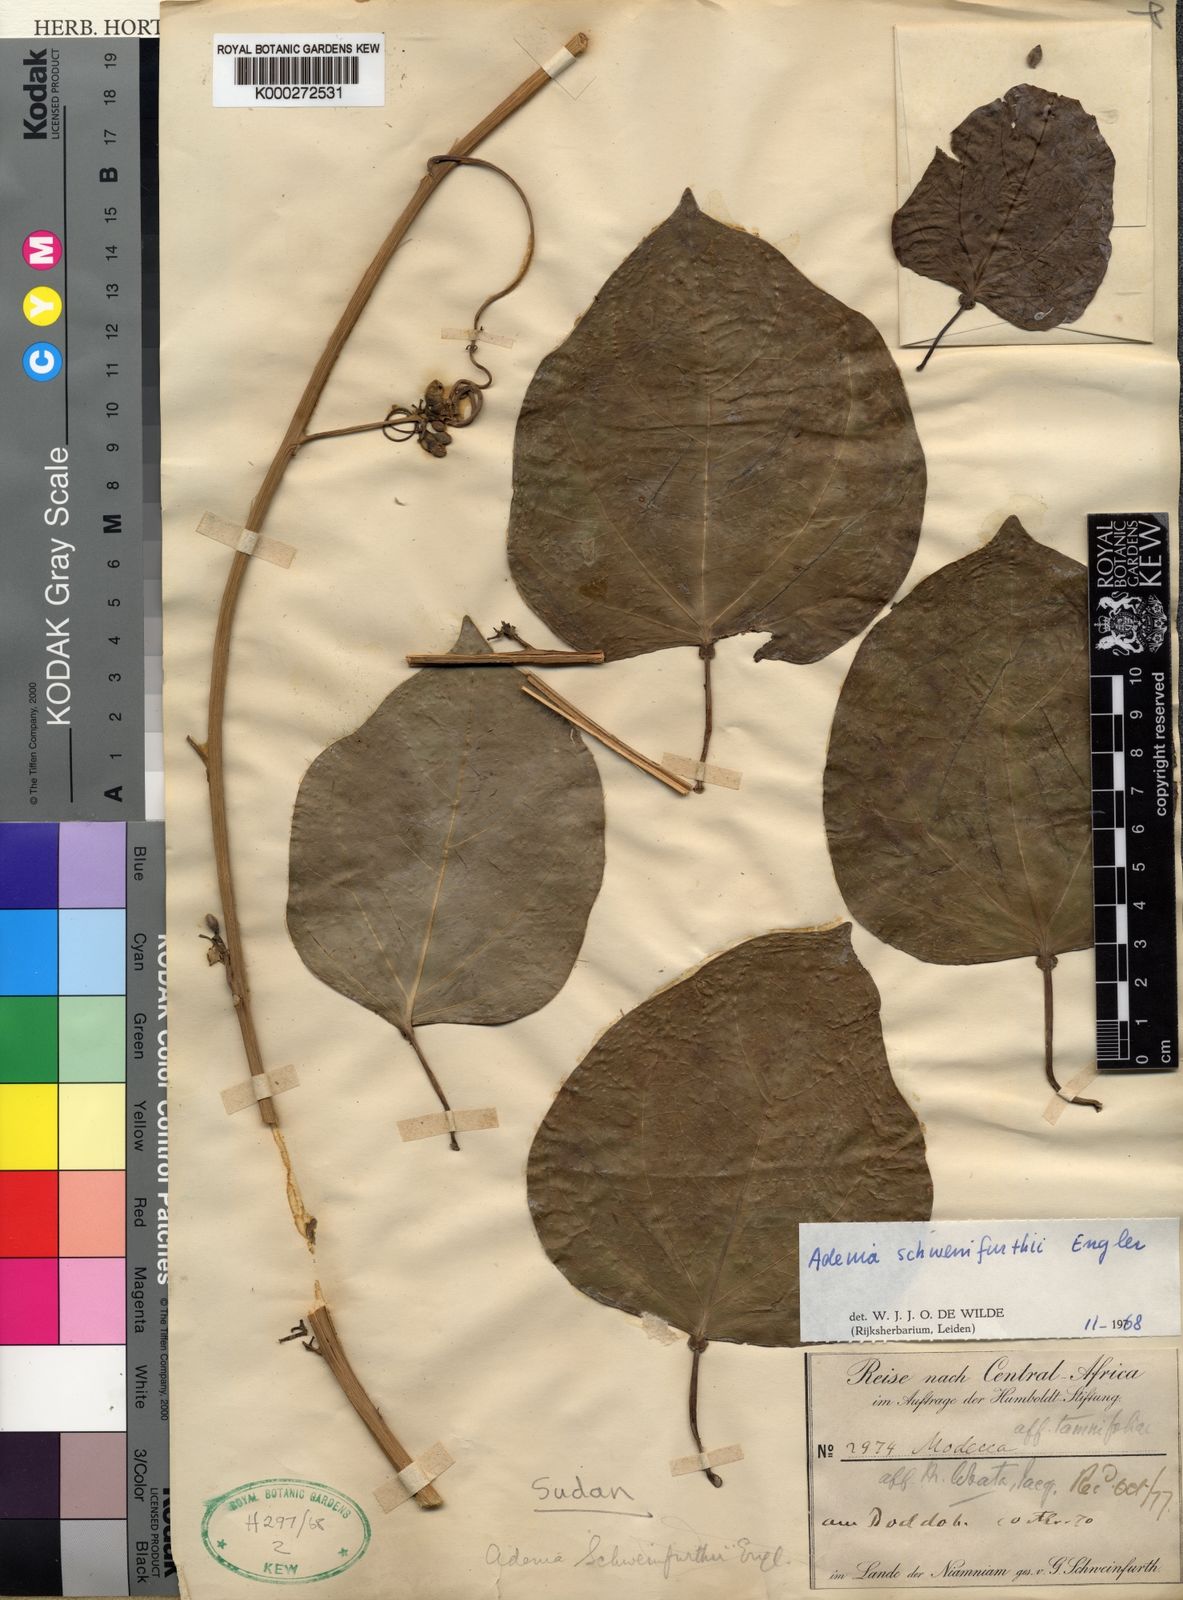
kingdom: Plantae
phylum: Tracheophyta
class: Magnoliopsida
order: Malpighiales
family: Passifloraceae
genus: Adenia
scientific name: Adenia lobata
